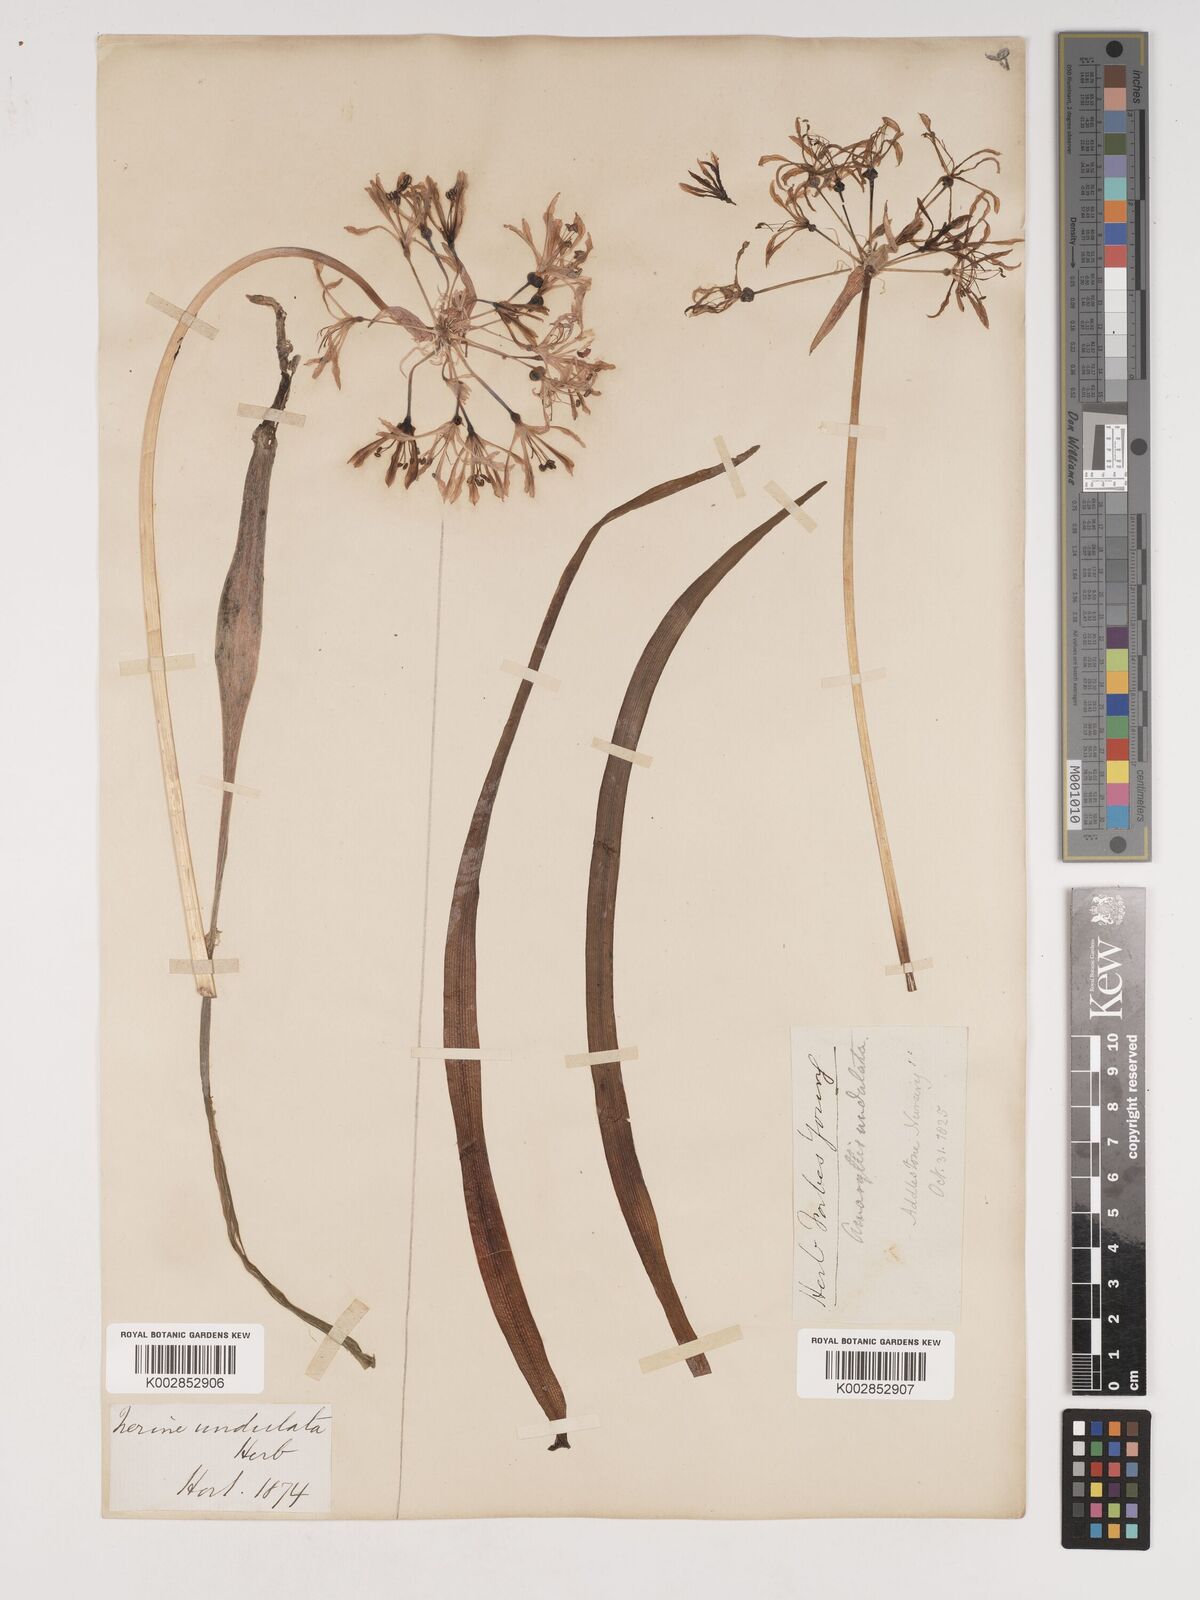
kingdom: Plantae
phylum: Tracheophyta
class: Liliopsida
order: Asparagales
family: Amaryllidaceae
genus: Nerine
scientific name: Nerine undulata
